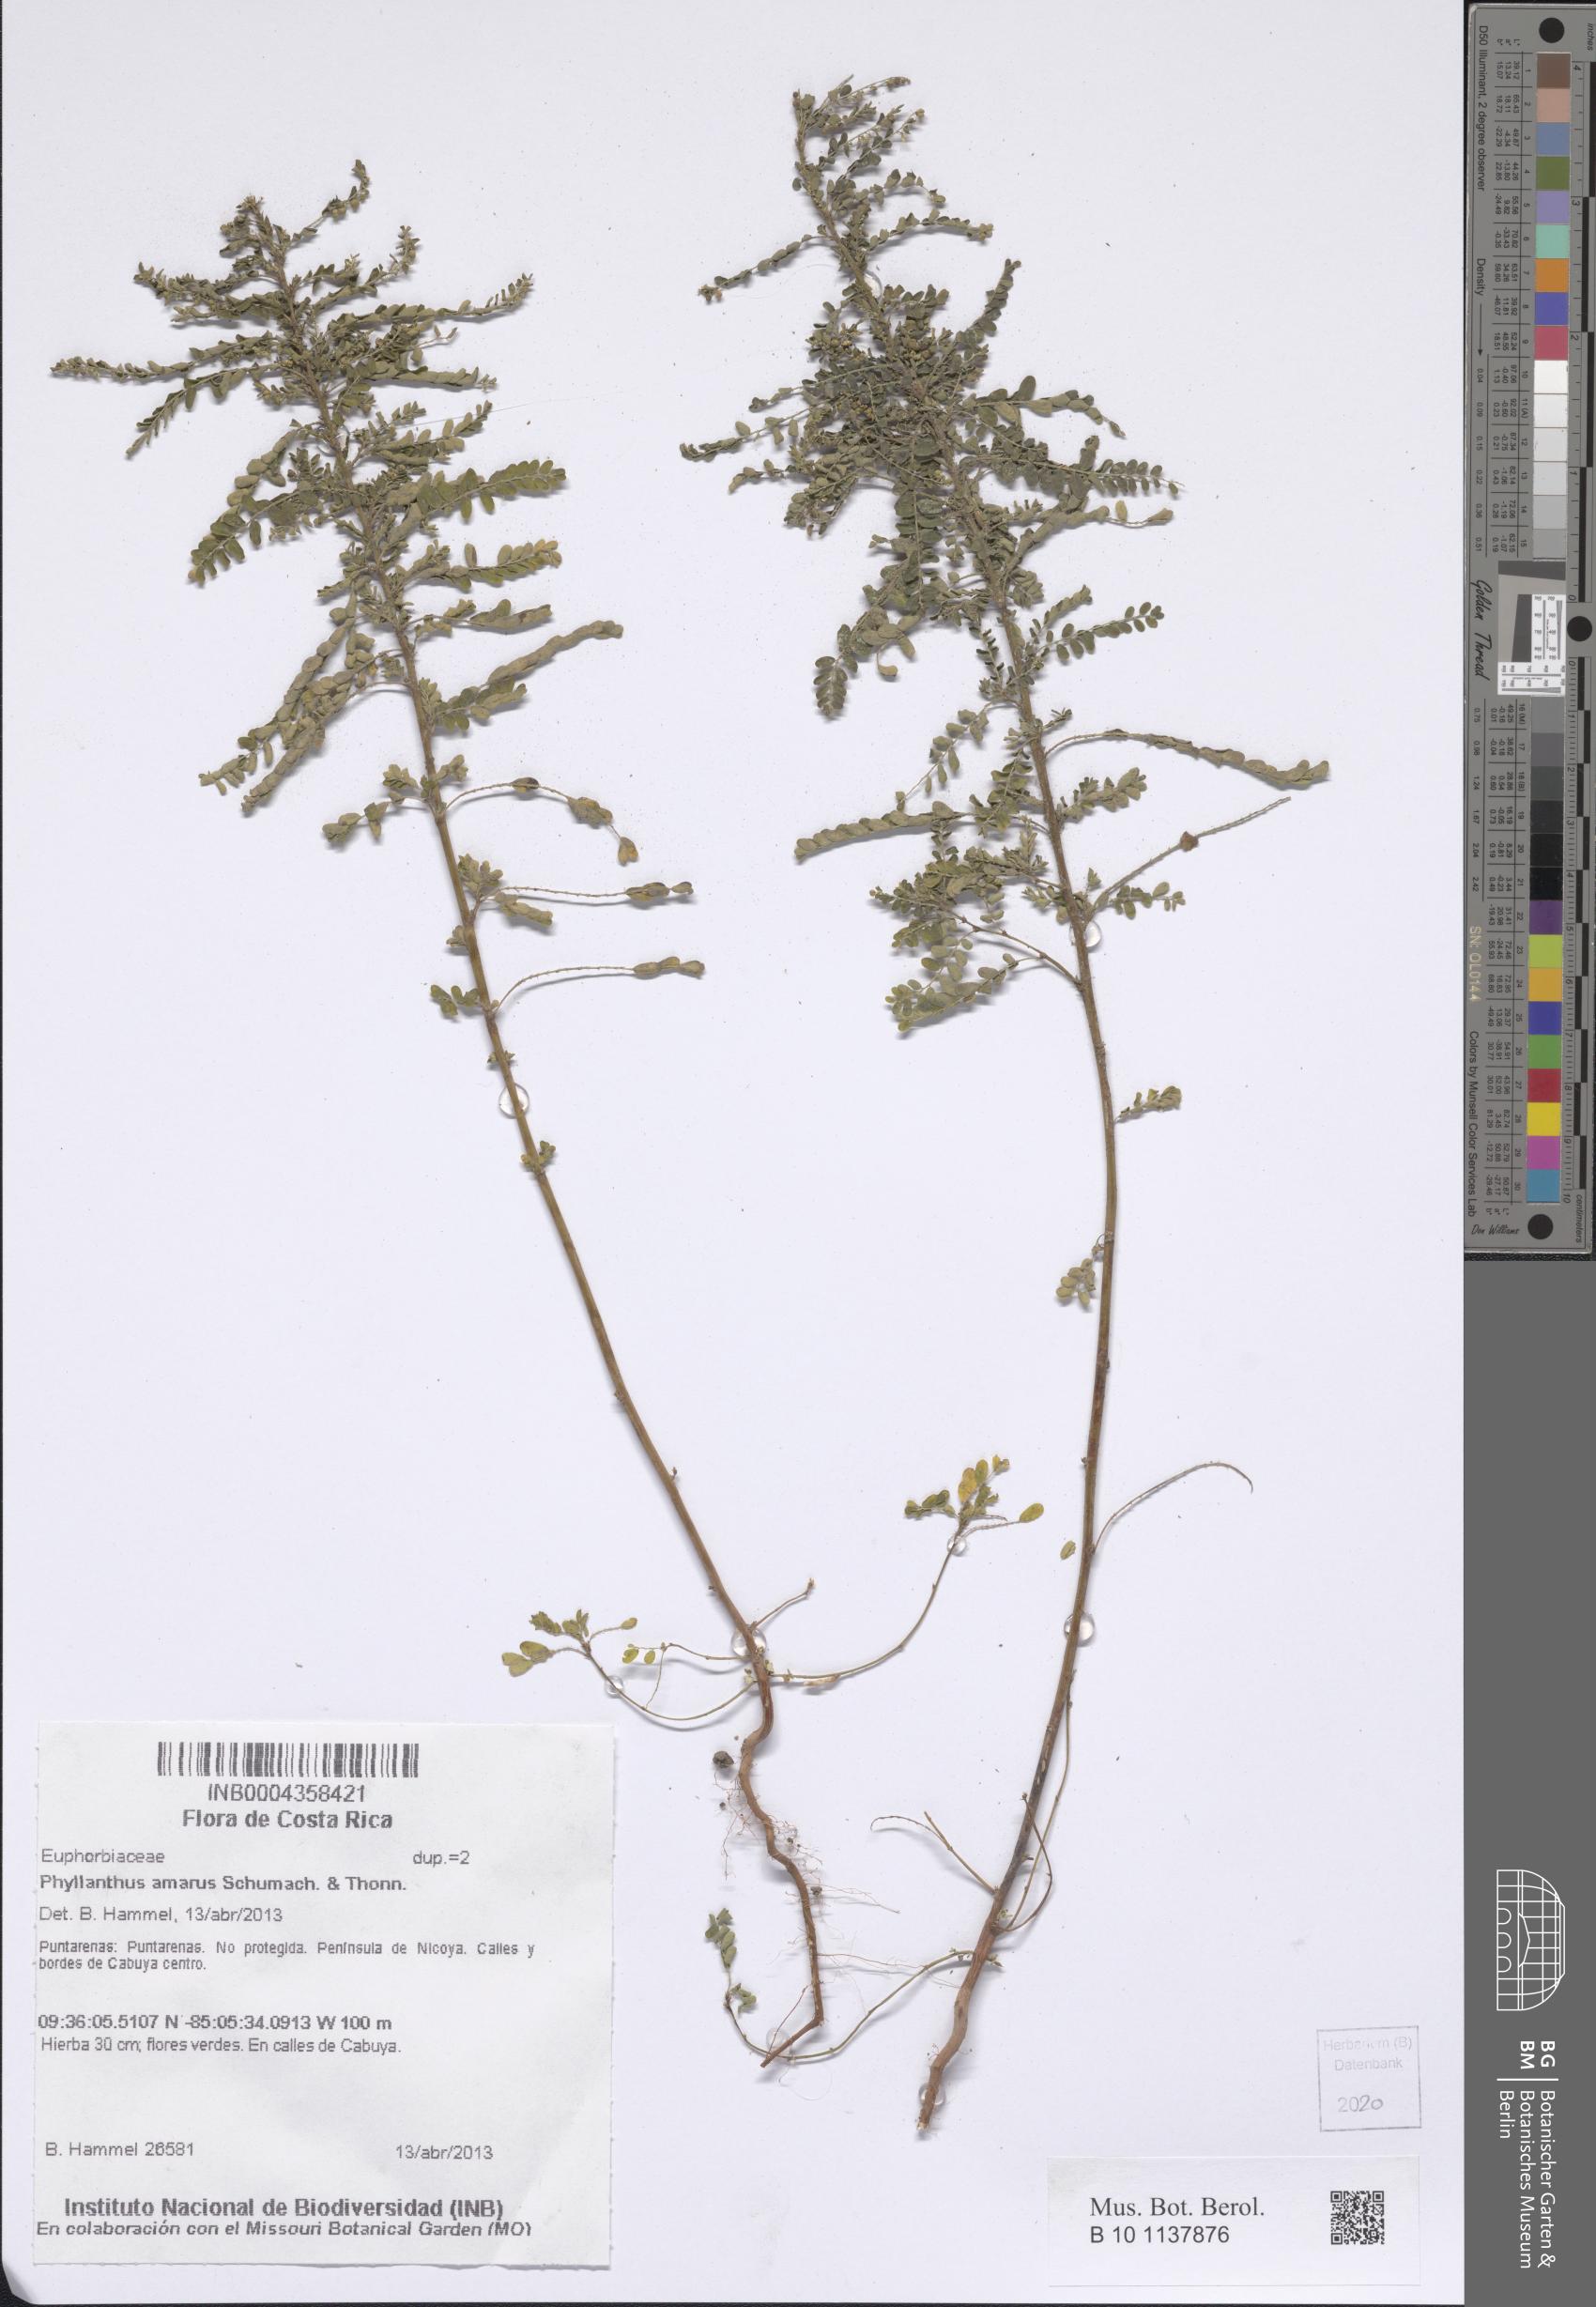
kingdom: Plantae
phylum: Tracheophyta
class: Magnoliopsida
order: Malpighiales
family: Phyllanthaceae
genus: Phyllanthus
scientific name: Phyllanthus amarus
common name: Carry me seed
